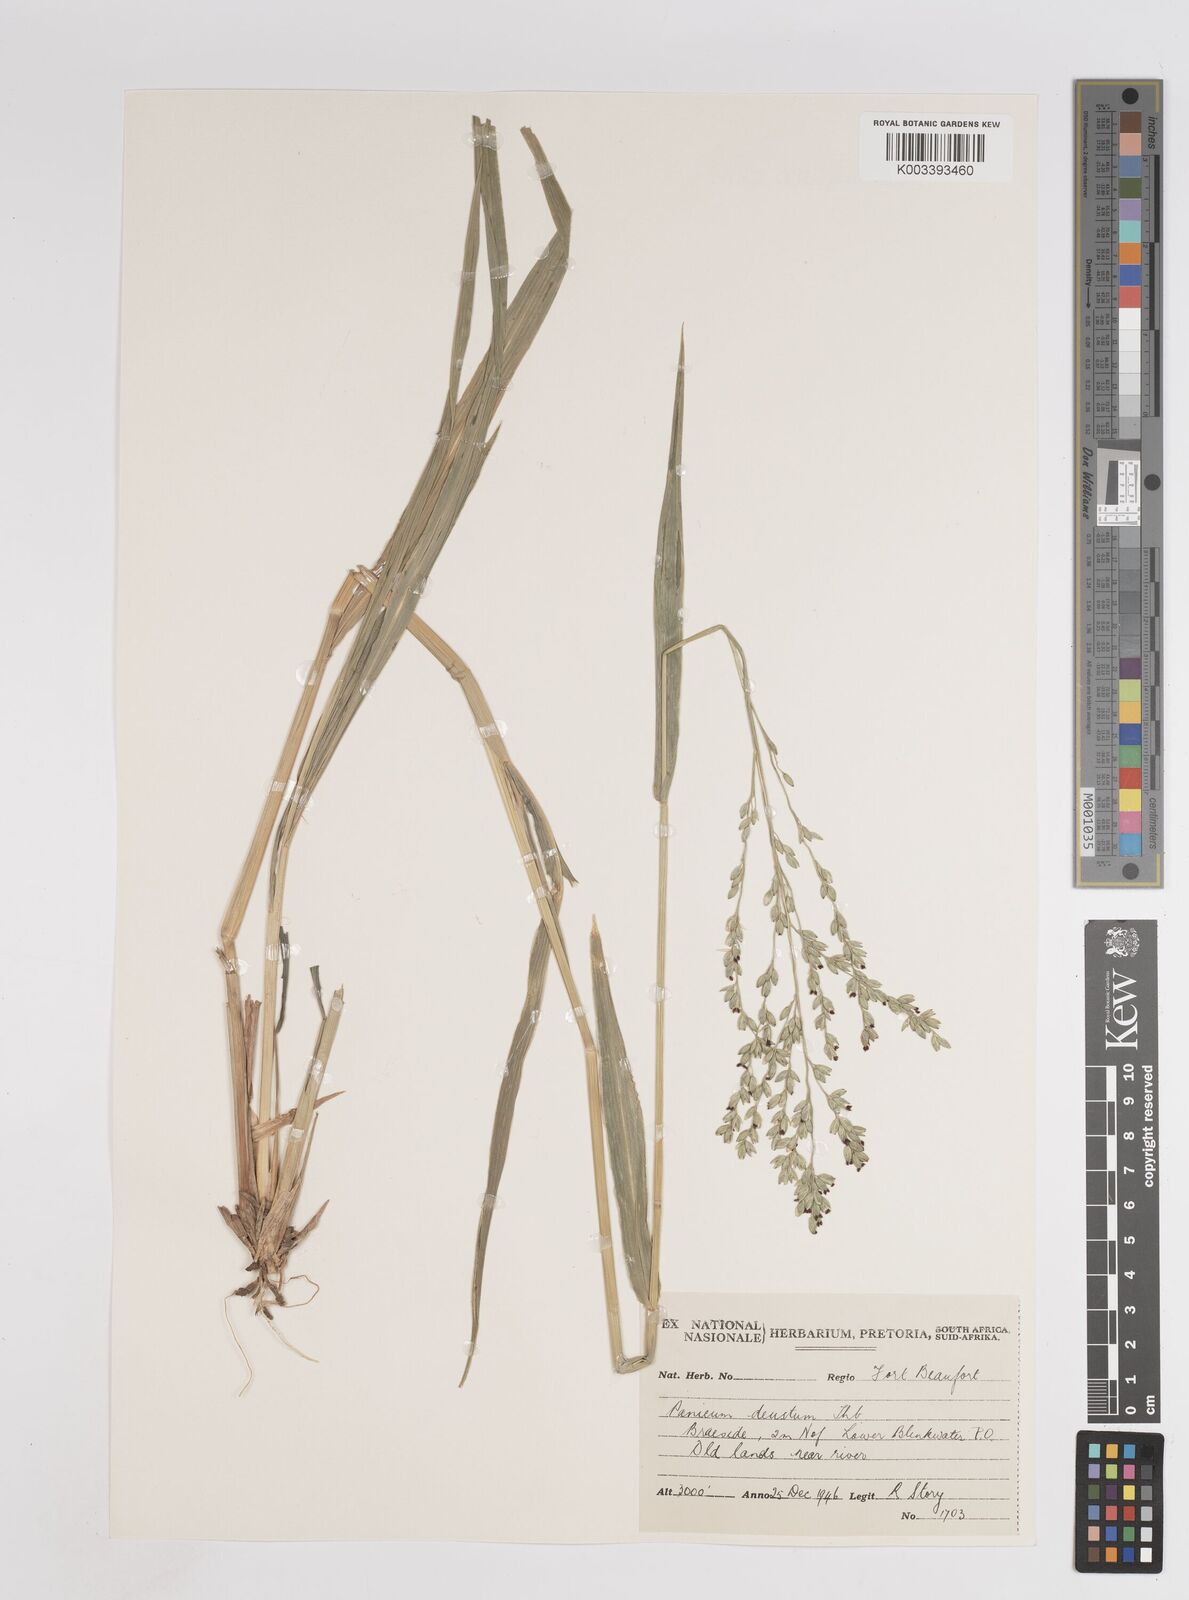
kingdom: Plantae
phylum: Tracheophyta
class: Liliopsida
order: Poales
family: Poaceae
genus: Panicum
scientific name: Panicum deustum
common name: Reed panicum
